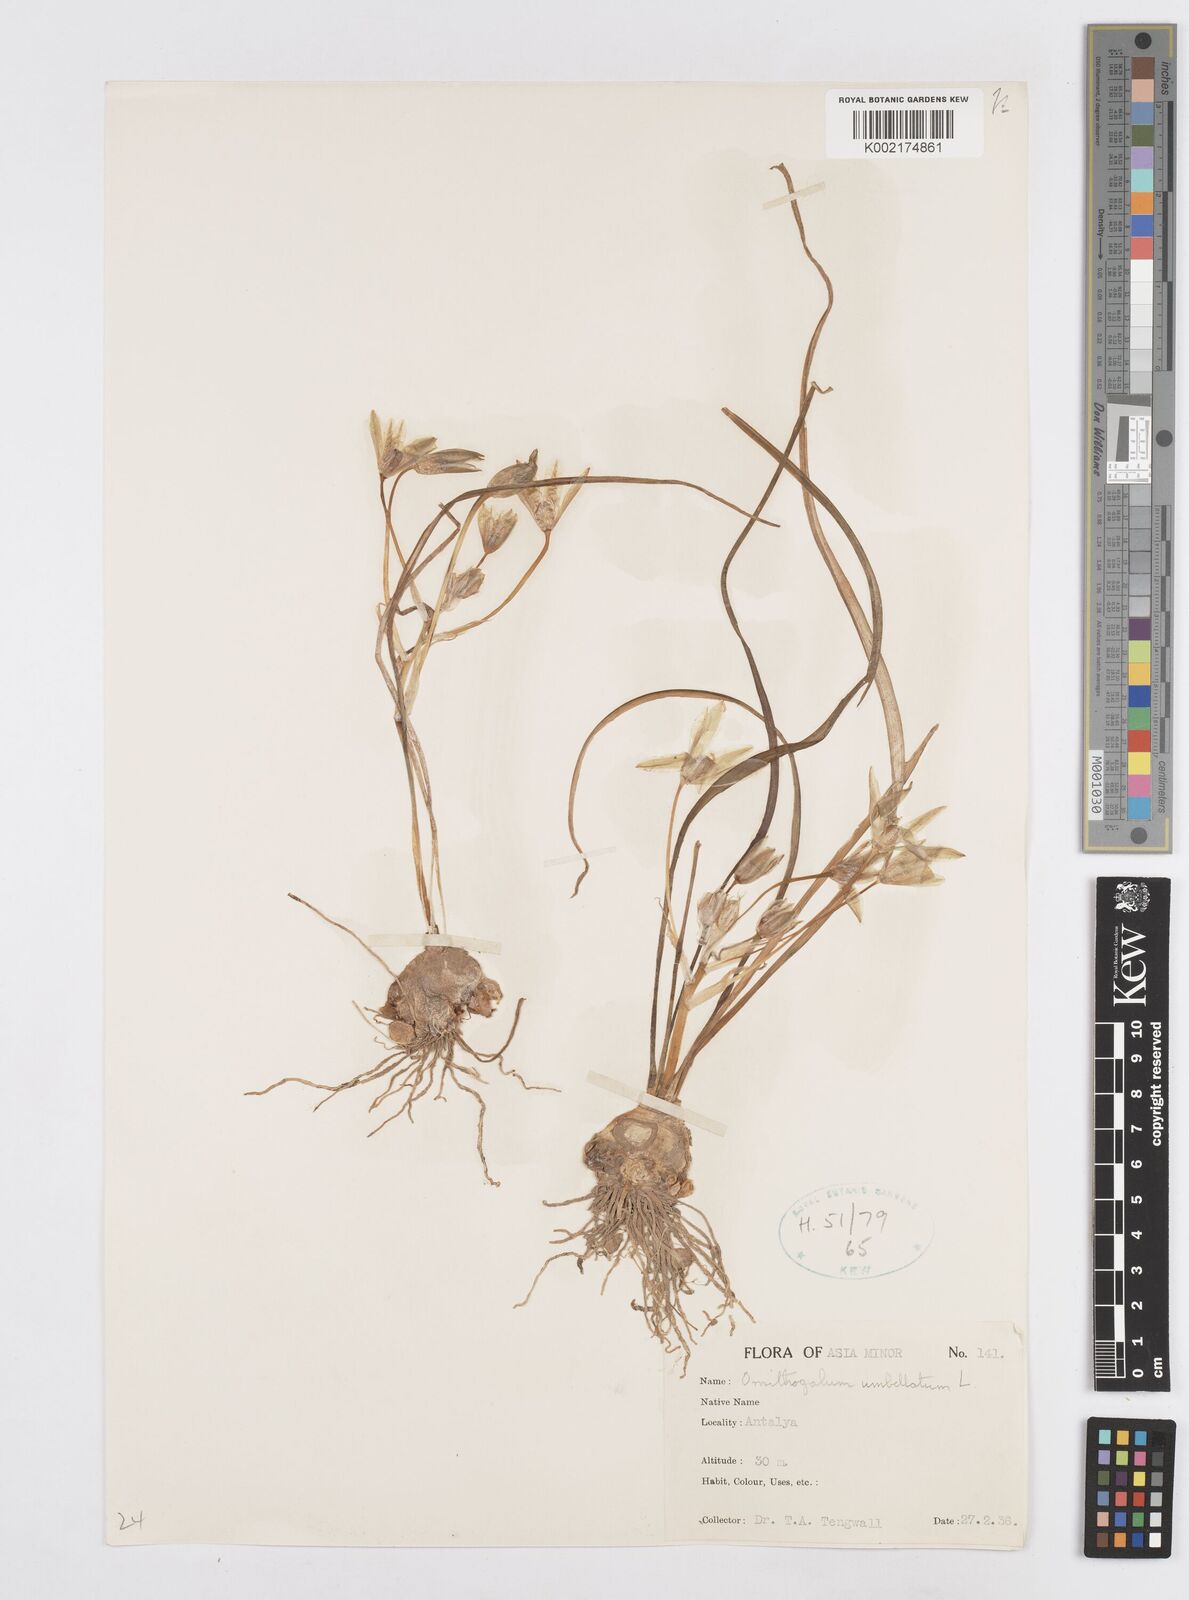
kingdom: Plantae
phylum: Tracheophyta
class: Liliopsida
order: Asparagales
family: Asparagaceae
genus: Ornithogalum
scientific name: Ornithogalum umbellatum
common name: Garden star-of-bethlehem
